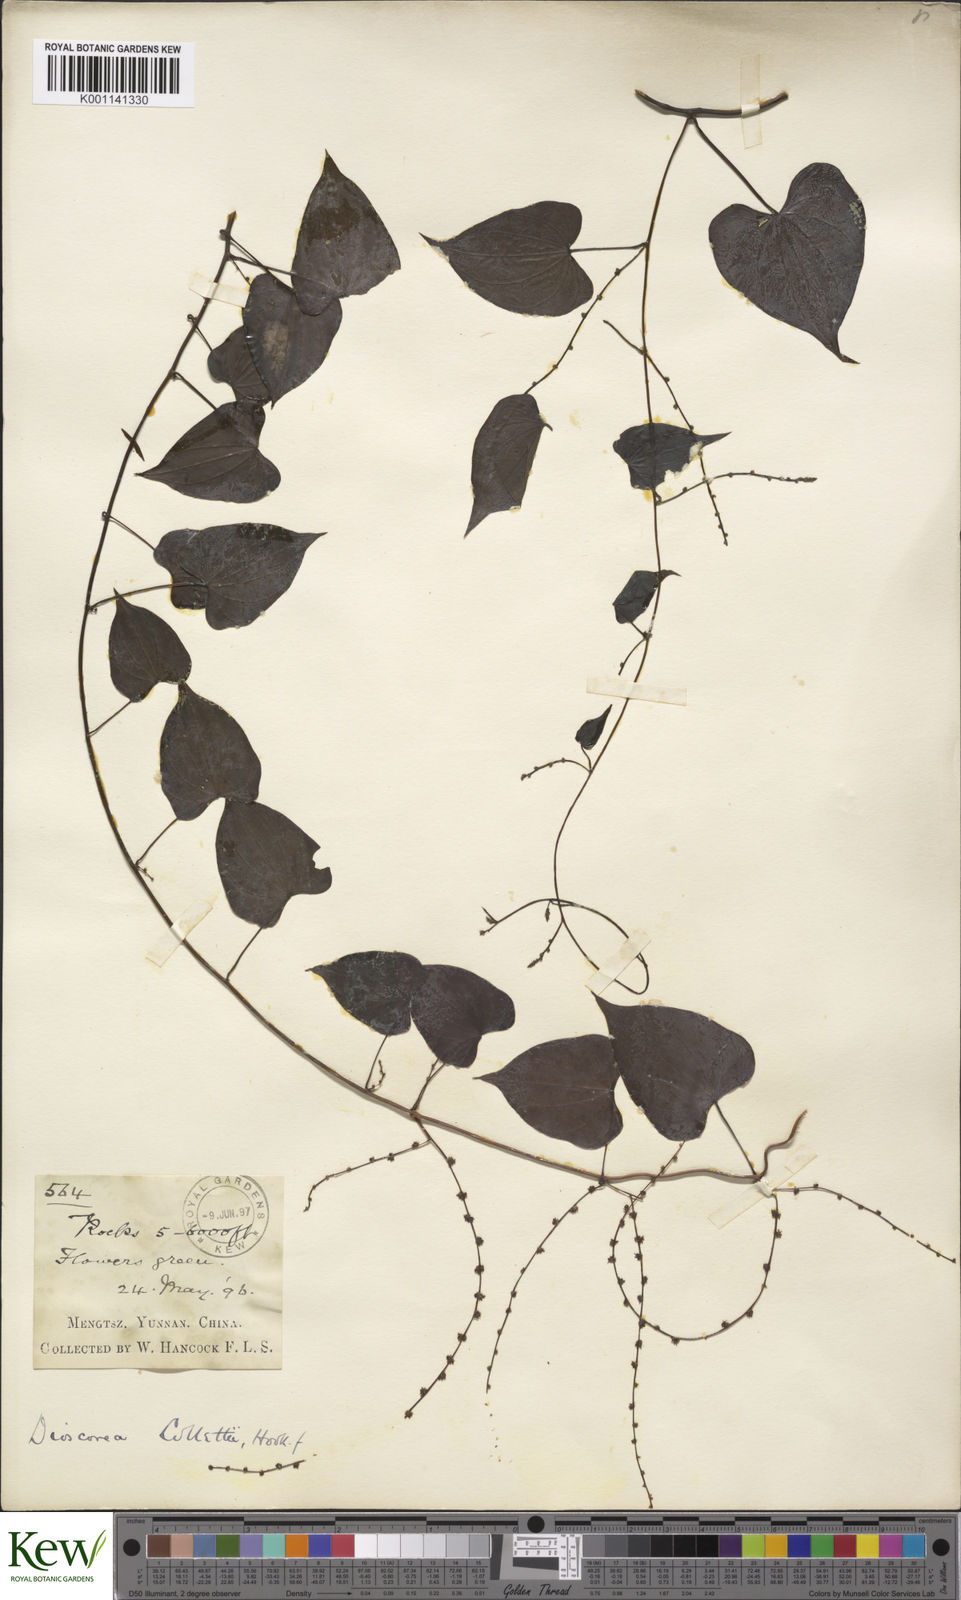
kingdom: Plantae
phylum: Tracheophyta
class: Liliopsida
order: Dioscoreales
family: Dioscoreaceae
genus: Dioscorea
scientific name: Dioscorea collettii
